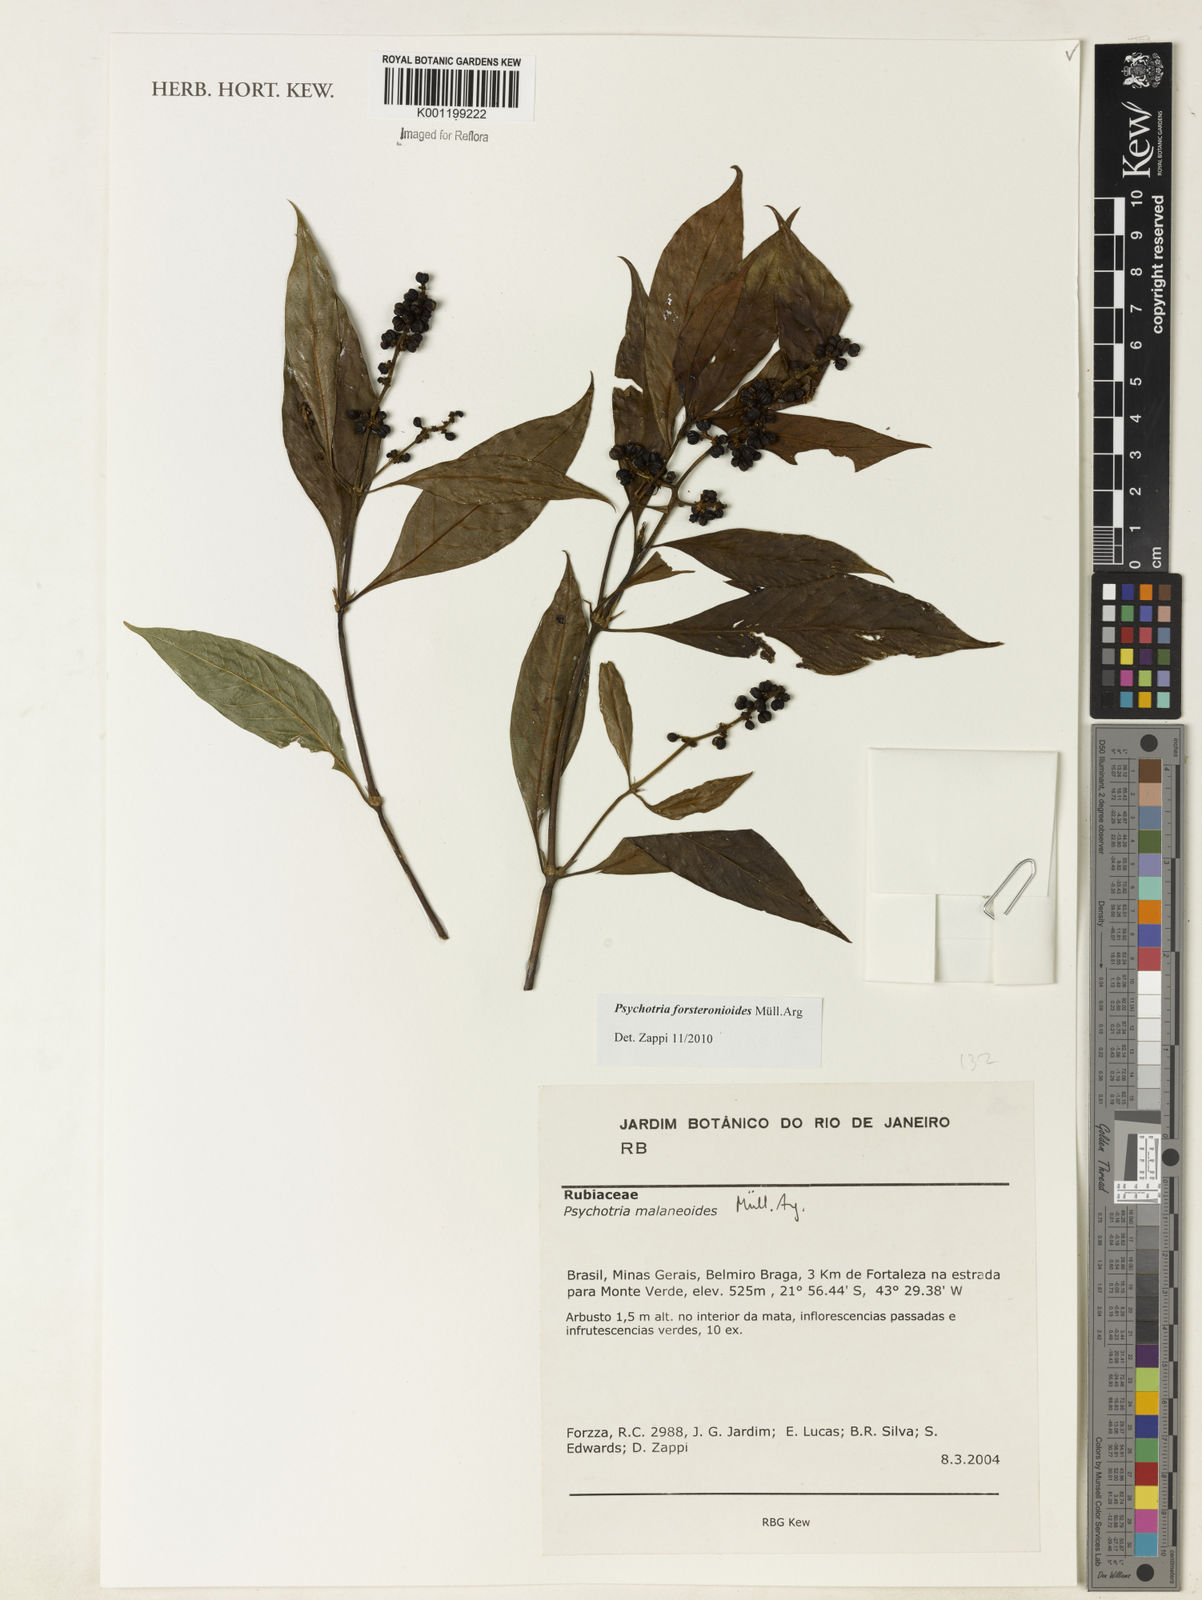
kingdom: Plantae
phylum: Tracheophyta
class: Magnoliopsida
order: Gentianales
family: Rubiaceae
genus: Psychotria
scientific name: Psychotria
